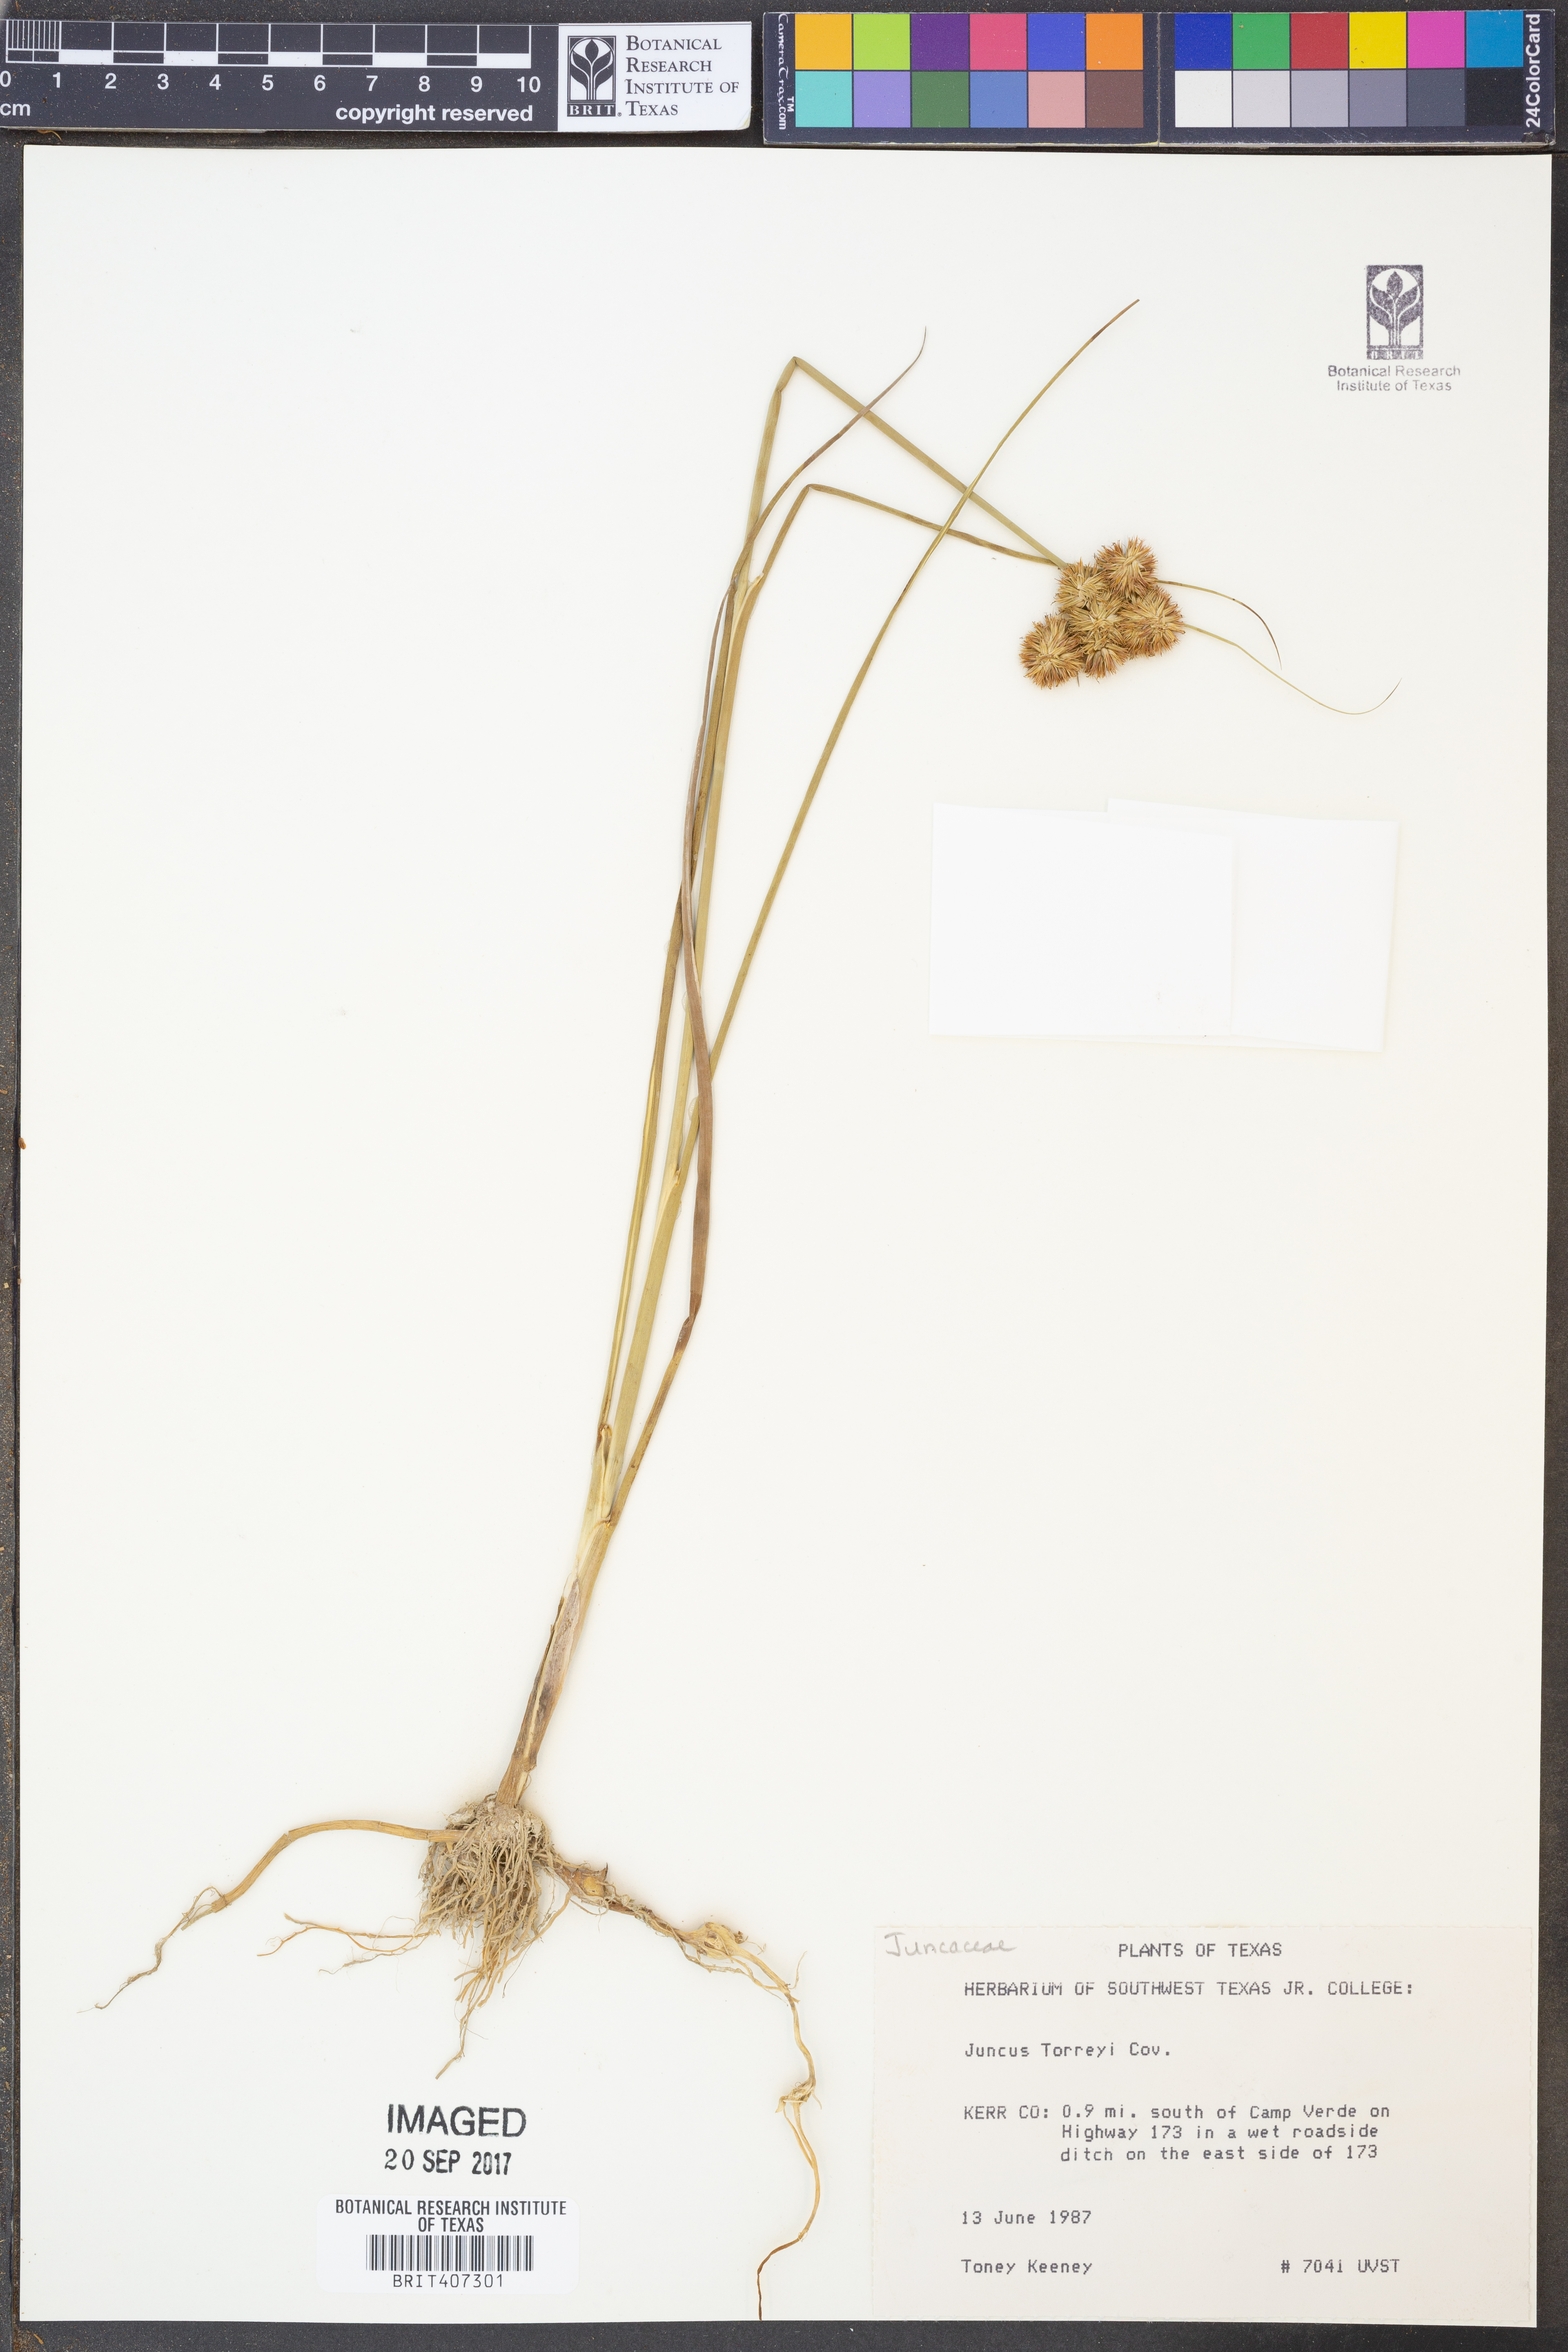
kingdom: Plantae
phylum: Tracheophyta
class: Liliopsida
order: Poales
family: Juncaceae
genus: Juncus
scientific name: Juncus torreyi
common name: Torrey's rush
